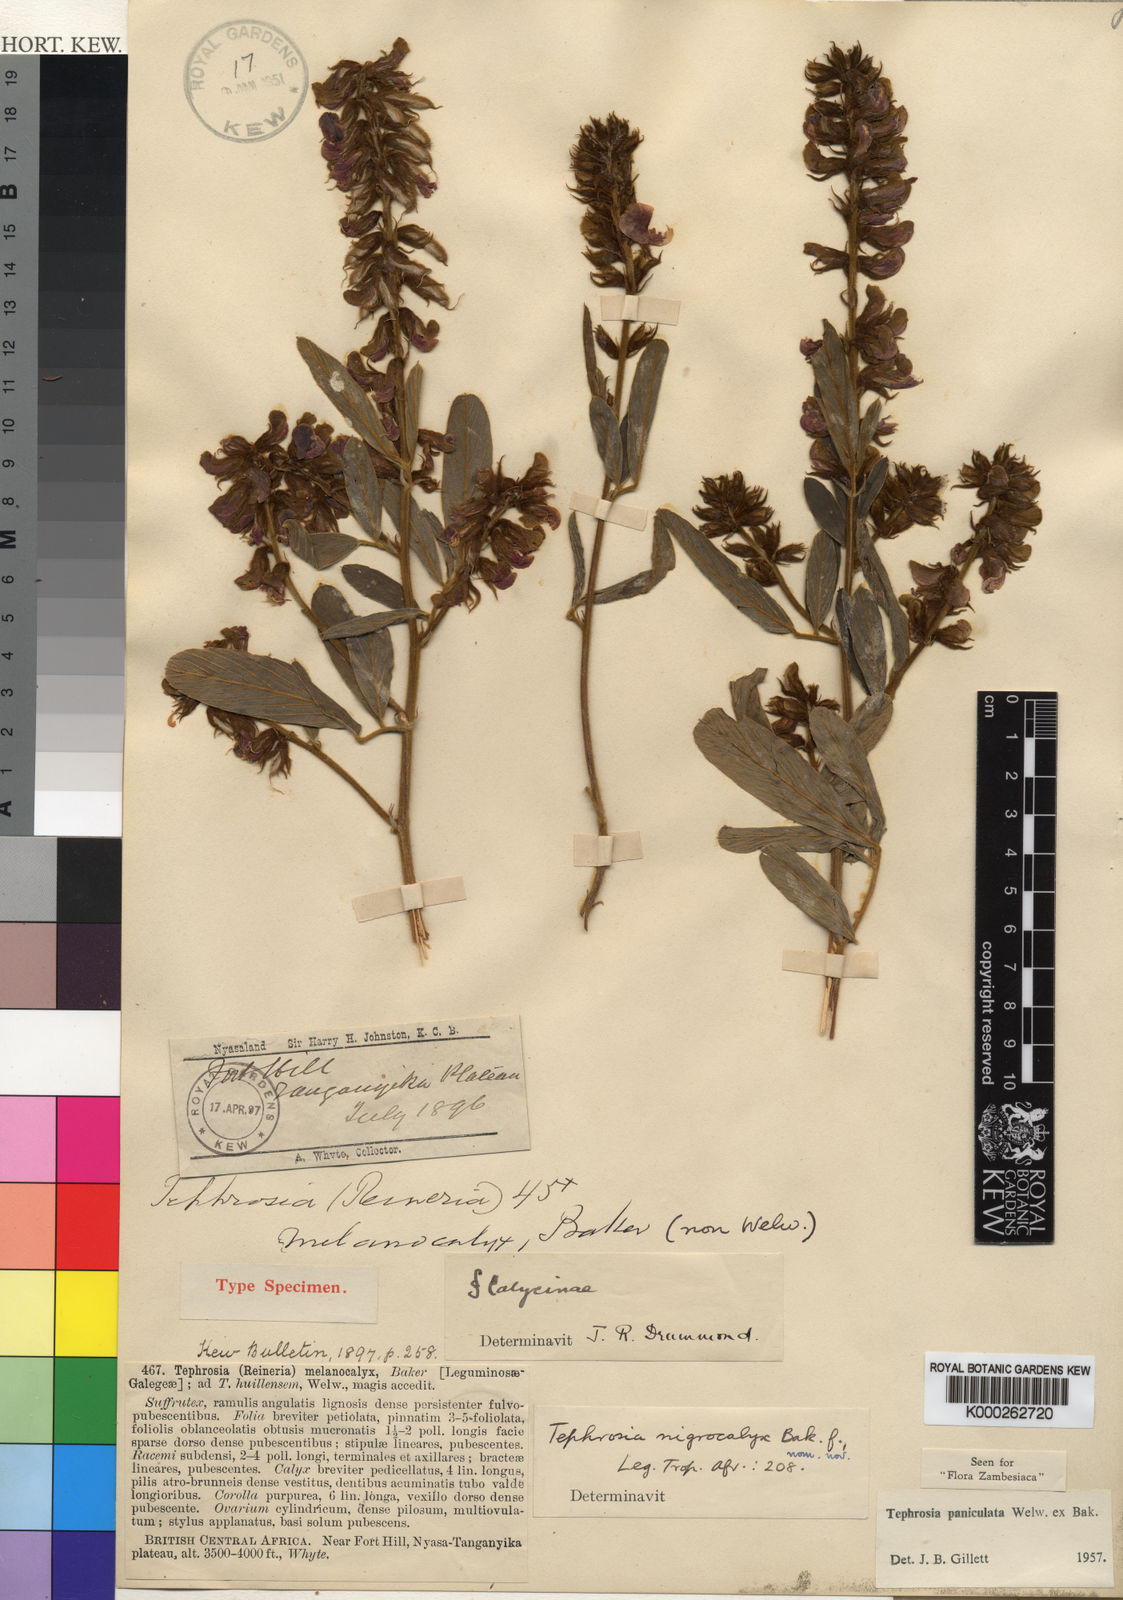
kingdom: Plantae
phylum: Tracheophyta
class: Magnoliopsida
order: Fabales
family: Fabaceae
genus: Tephrosia
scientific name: Tephrosia melanocalyx
